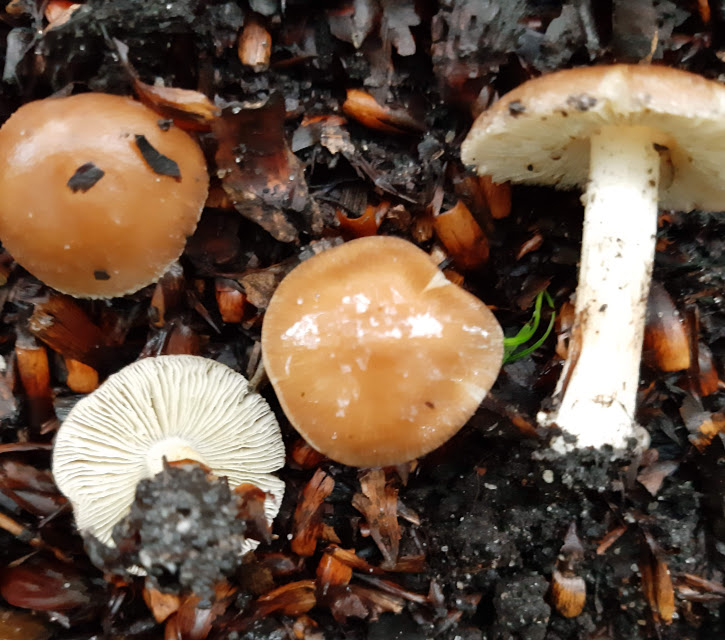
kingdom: Fungi
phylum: Basidiomycota
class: Agaricomycetes
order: Agaricales
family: Inocybaceae
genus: Inocybe
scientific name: Inocybe
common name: trævlhat
